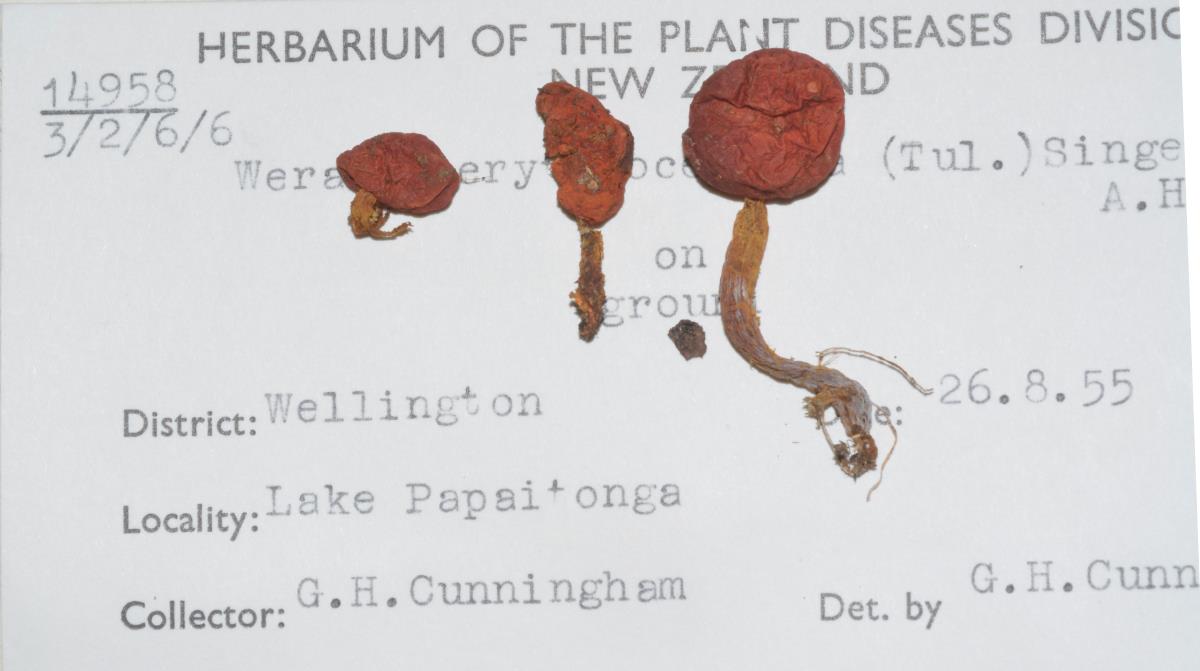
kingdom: Fungi
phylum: Basidiomycota
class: Agaricomycetes
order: Agaricales
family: Strophariaceae
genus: Leratiomyces
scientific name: Leratiomyces erythrocephalus
